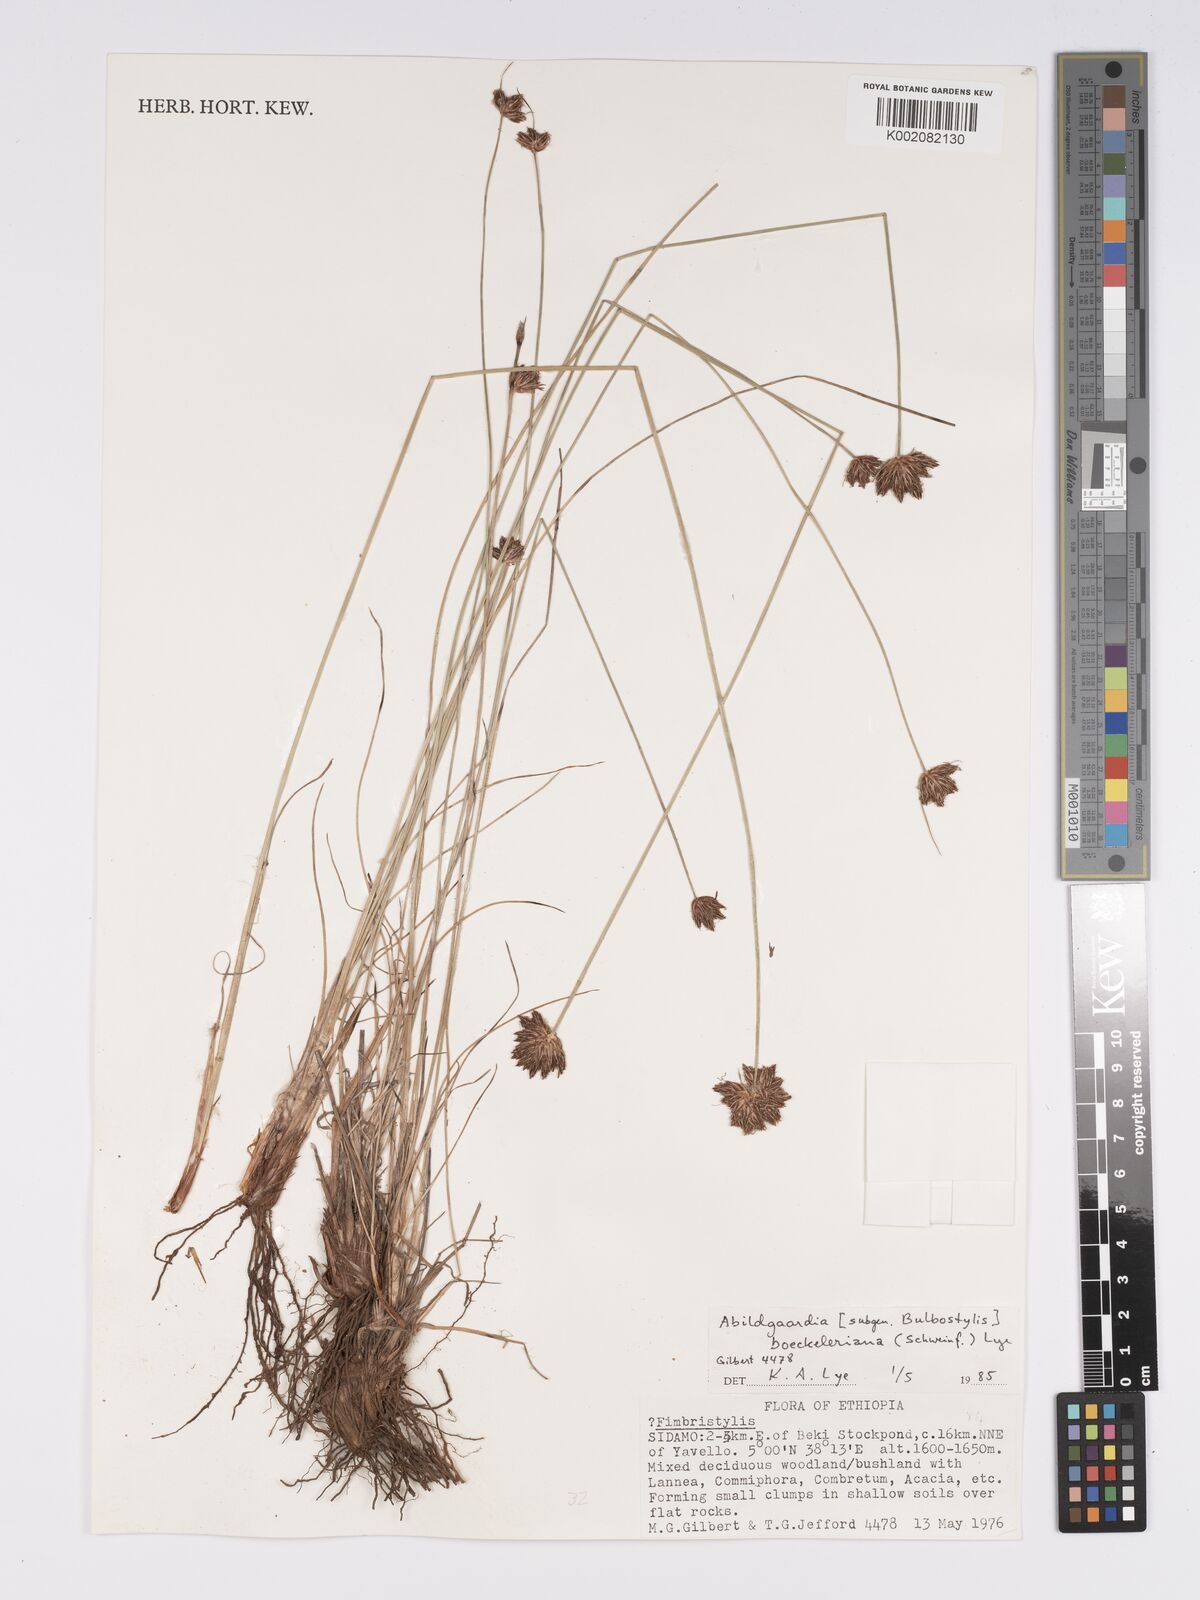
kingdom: Plantae
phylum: Tracheophyta
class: Liliopsida
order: Poales
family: Cyperaceae
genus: Bulbostylis
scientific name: Bulbostylis boeckeleriana
